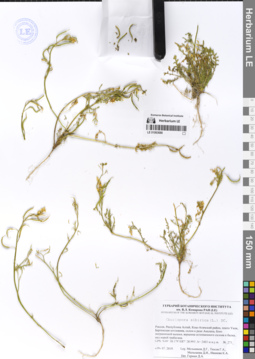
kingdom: Plantae
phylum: Tracheophyta
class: Magnoliopsida
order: Brassicales
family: Brassicaceae
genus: Chorispora
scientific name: Chorispora sibirica
